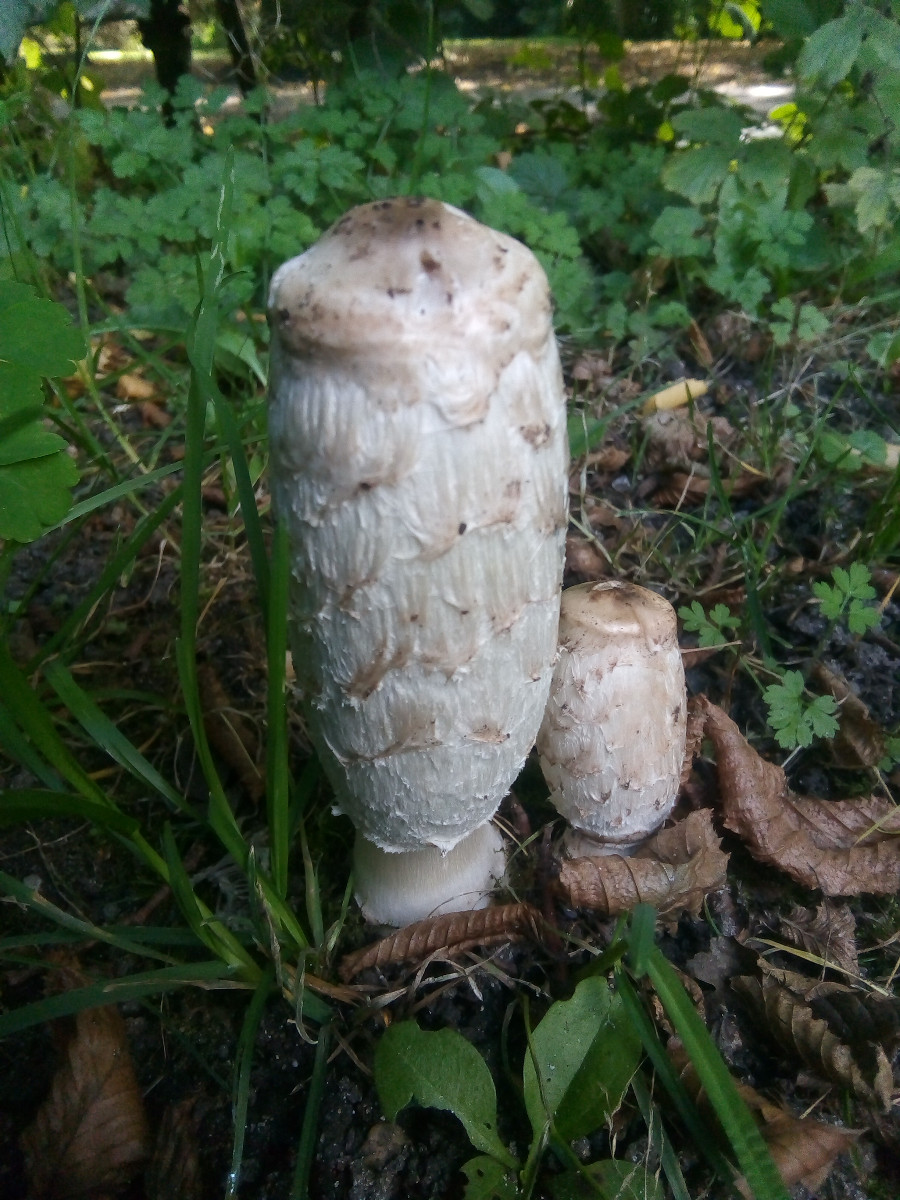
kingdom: Fungi
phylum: Basidiomycota
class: Agaricomycetes
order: Agaricales
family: Agaricaceae
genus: Coprinus
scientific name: Coprinus comatus
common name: stor parykhat
